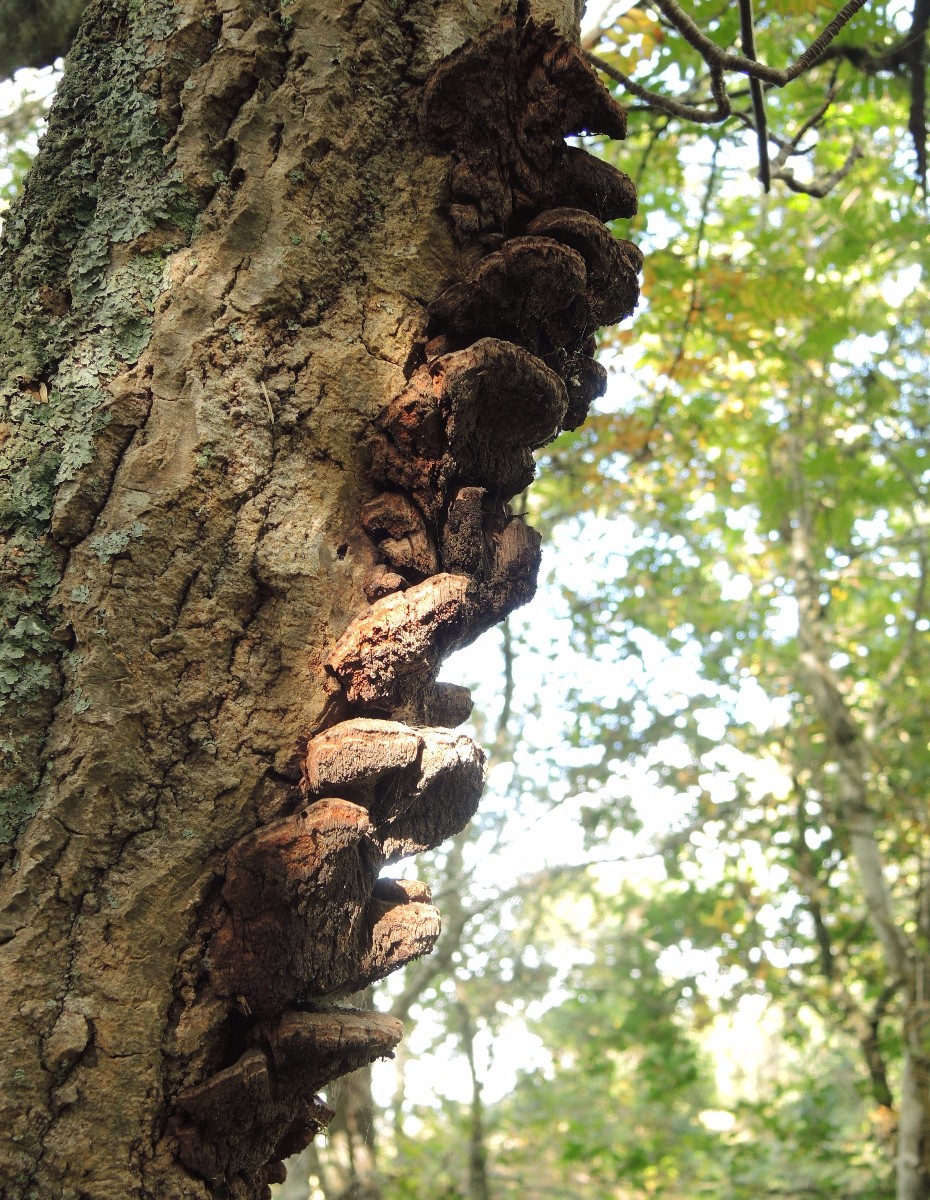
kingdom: Fungi
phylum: Basidiomycota
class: Agaricomycetes
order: Hymenochaetales
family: Hymenochaetaceae
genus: Inocutis
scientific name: Inocutis rheades
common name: ræve-spejlporesvamp
